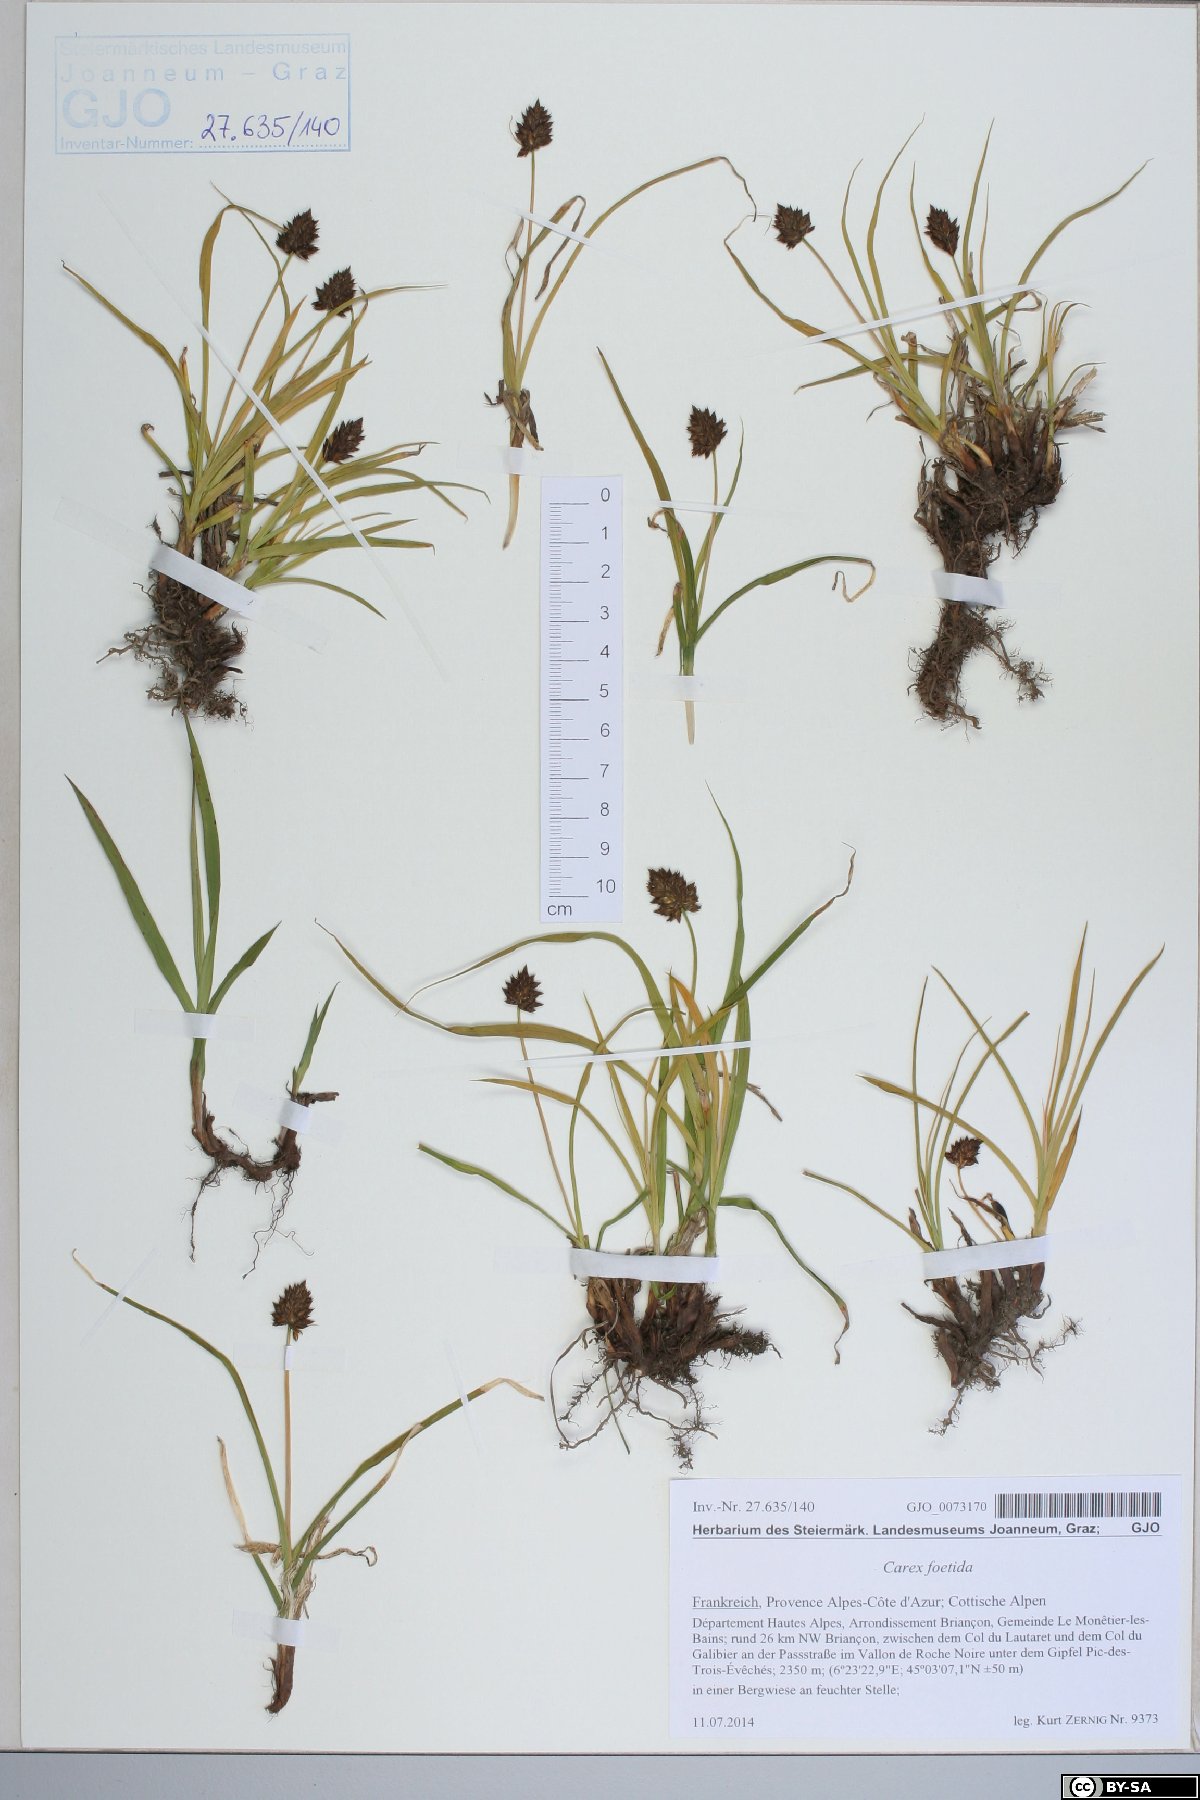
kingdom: Plantae
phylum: Tracheophyta
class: Liliopsida
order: Poales
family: Cyperaceae
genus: Carex
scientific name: Carex foetida
